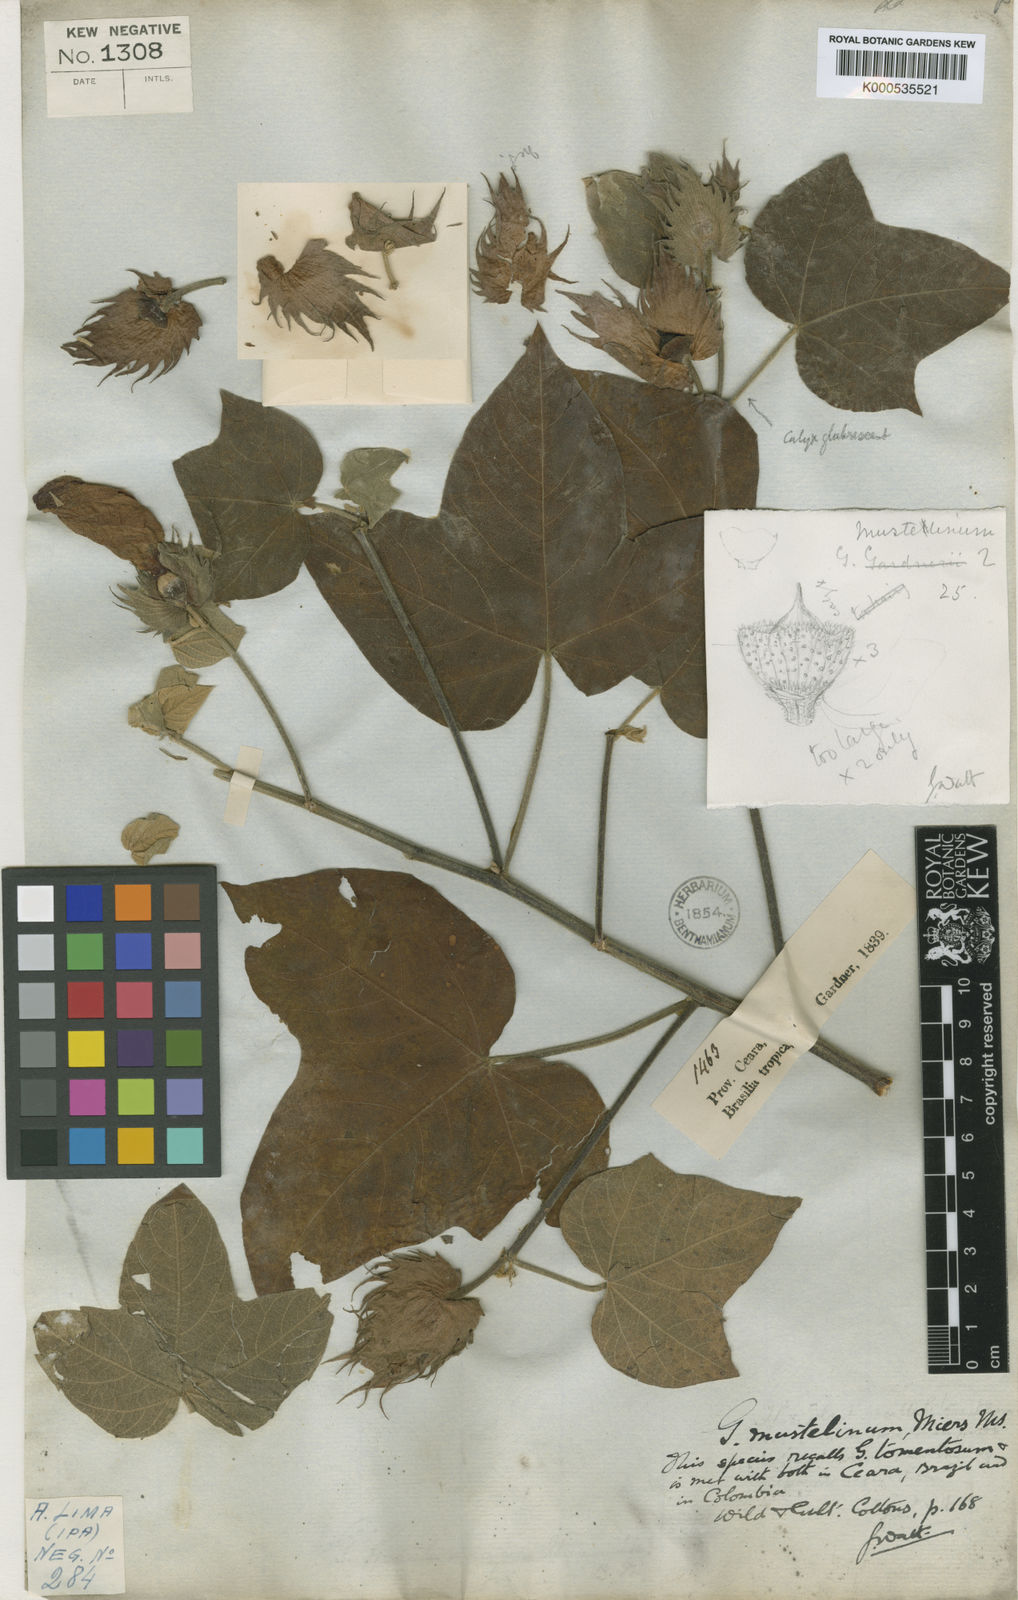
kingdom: Plantae
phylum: Tracheophyta
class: Magnoliopsida
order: Malvales
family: Malvaceae
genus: Gossypium
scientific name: Gossypium mustelinum
